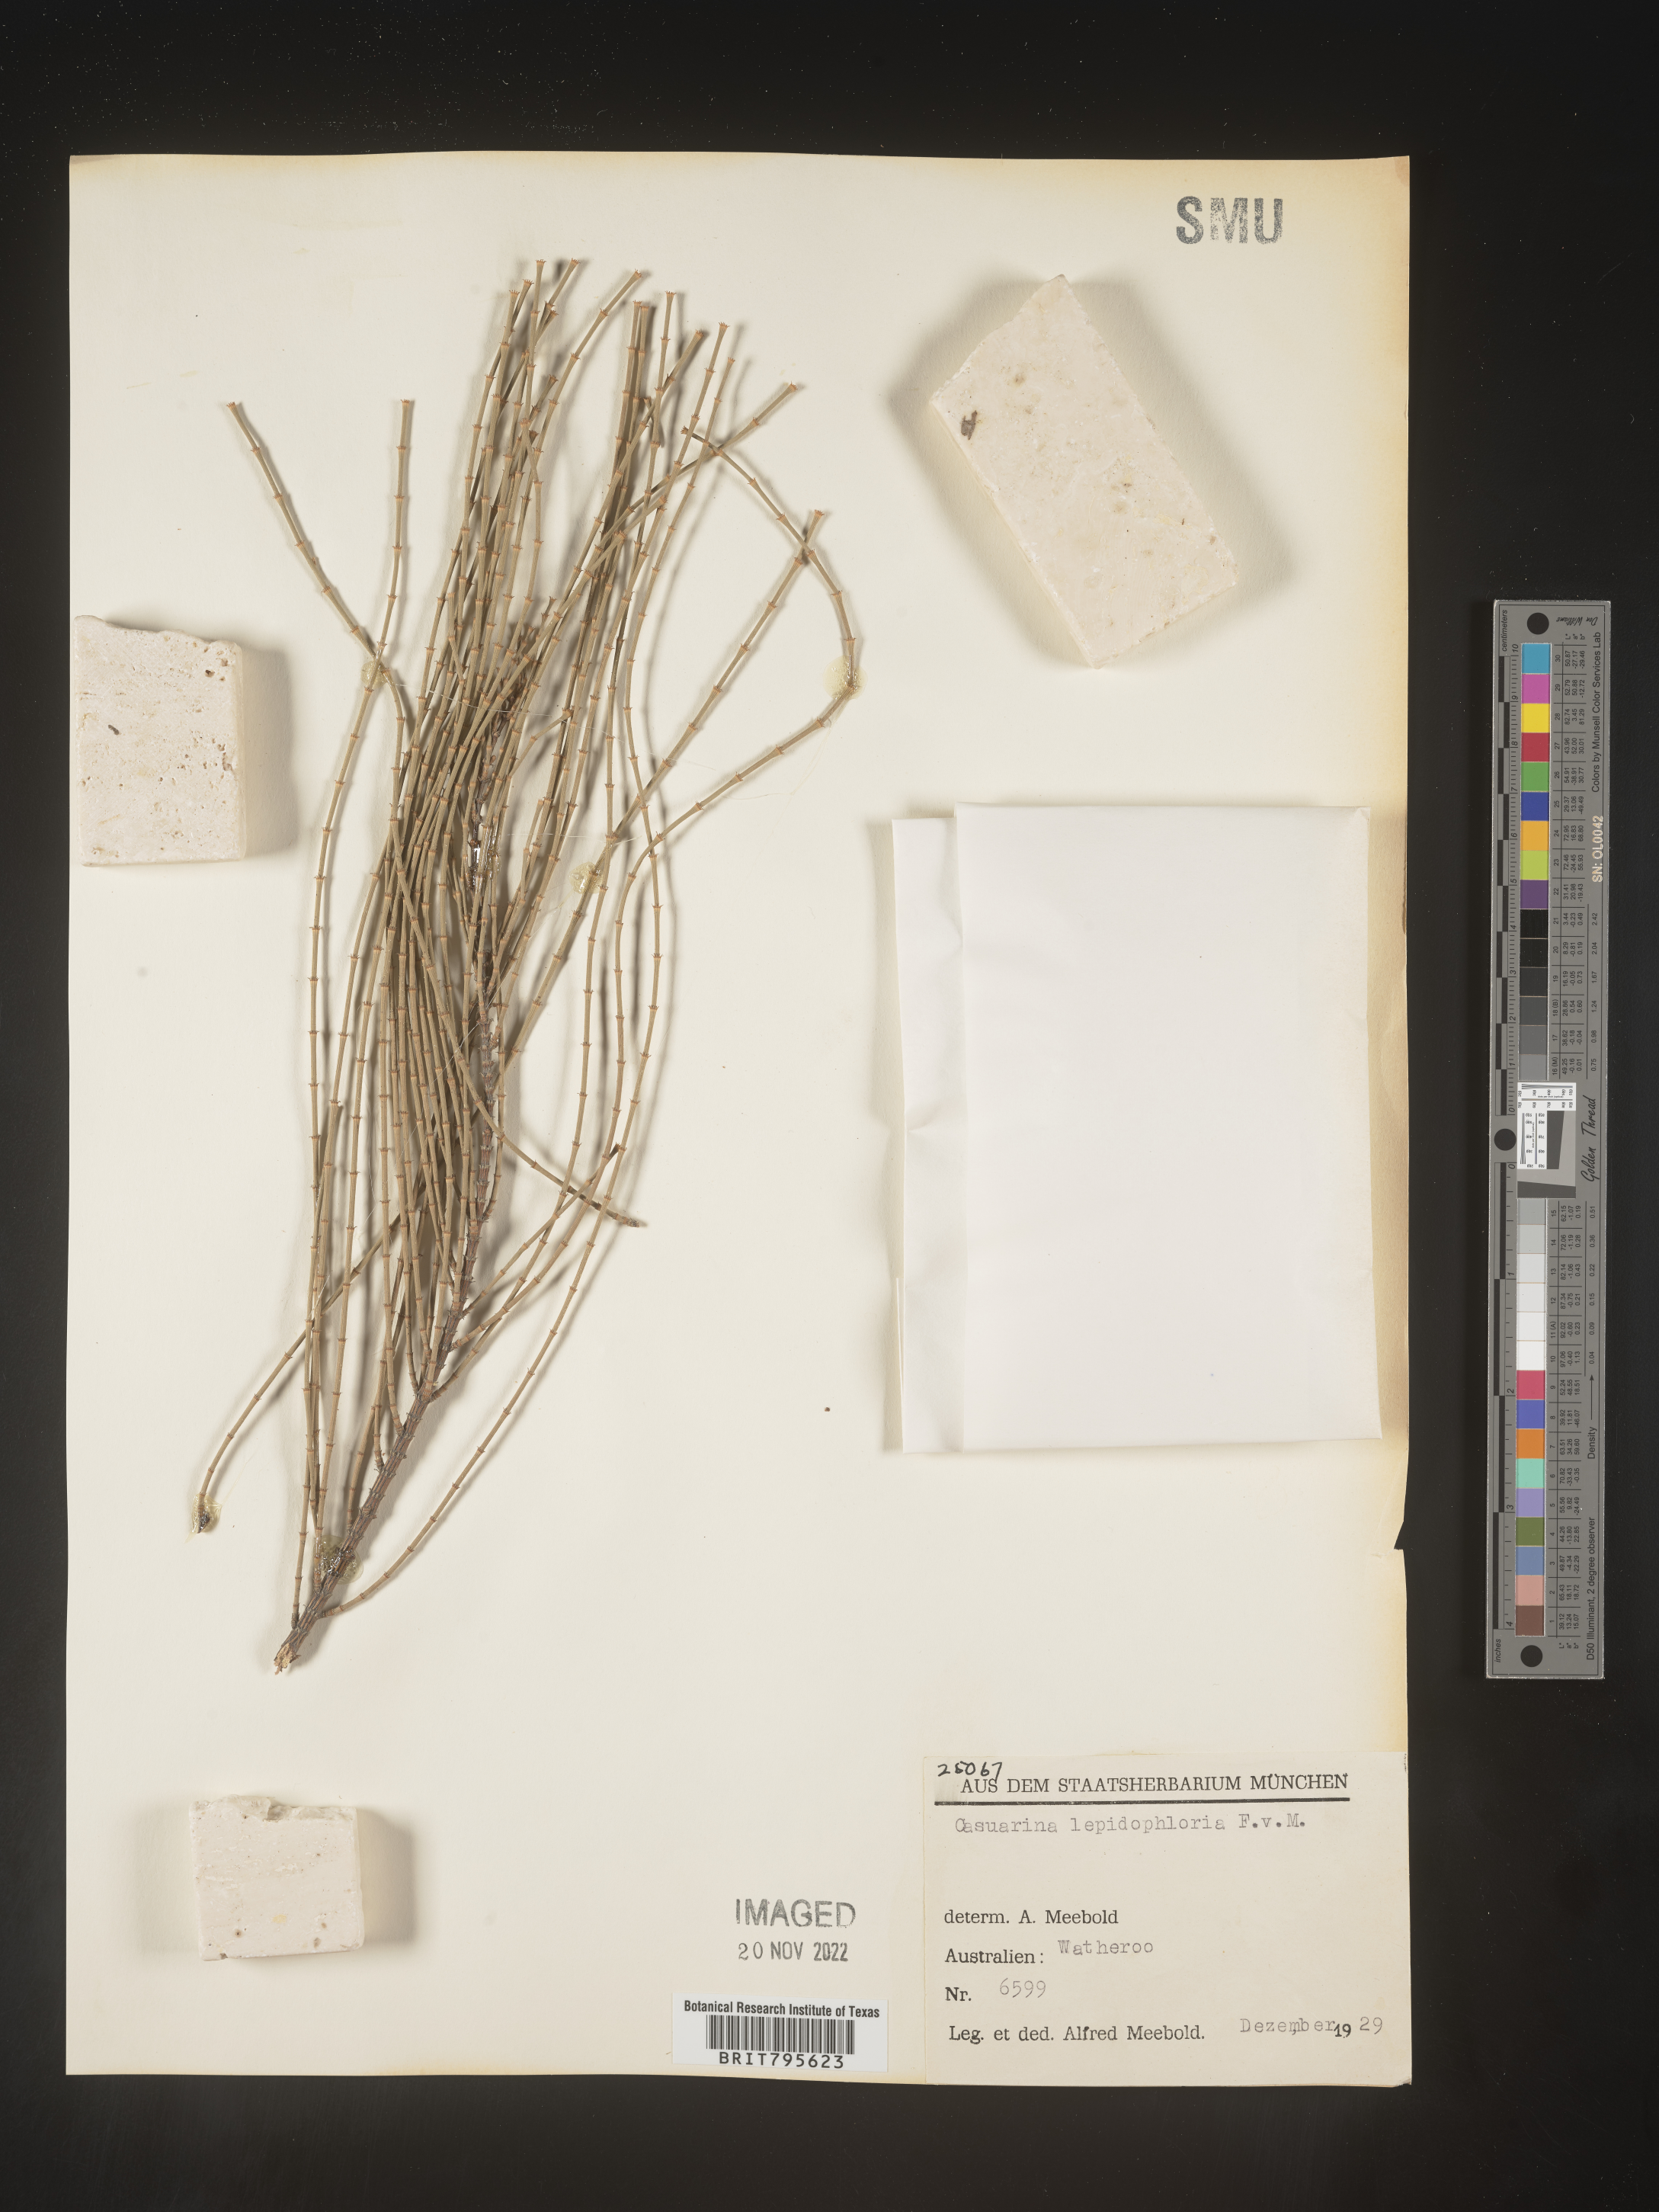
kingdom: Plantae
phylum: Tracheophyta
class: Magnoliopsida
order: Fagales
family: Casuarinaceae
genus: Casuarina
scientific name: Casuarina
